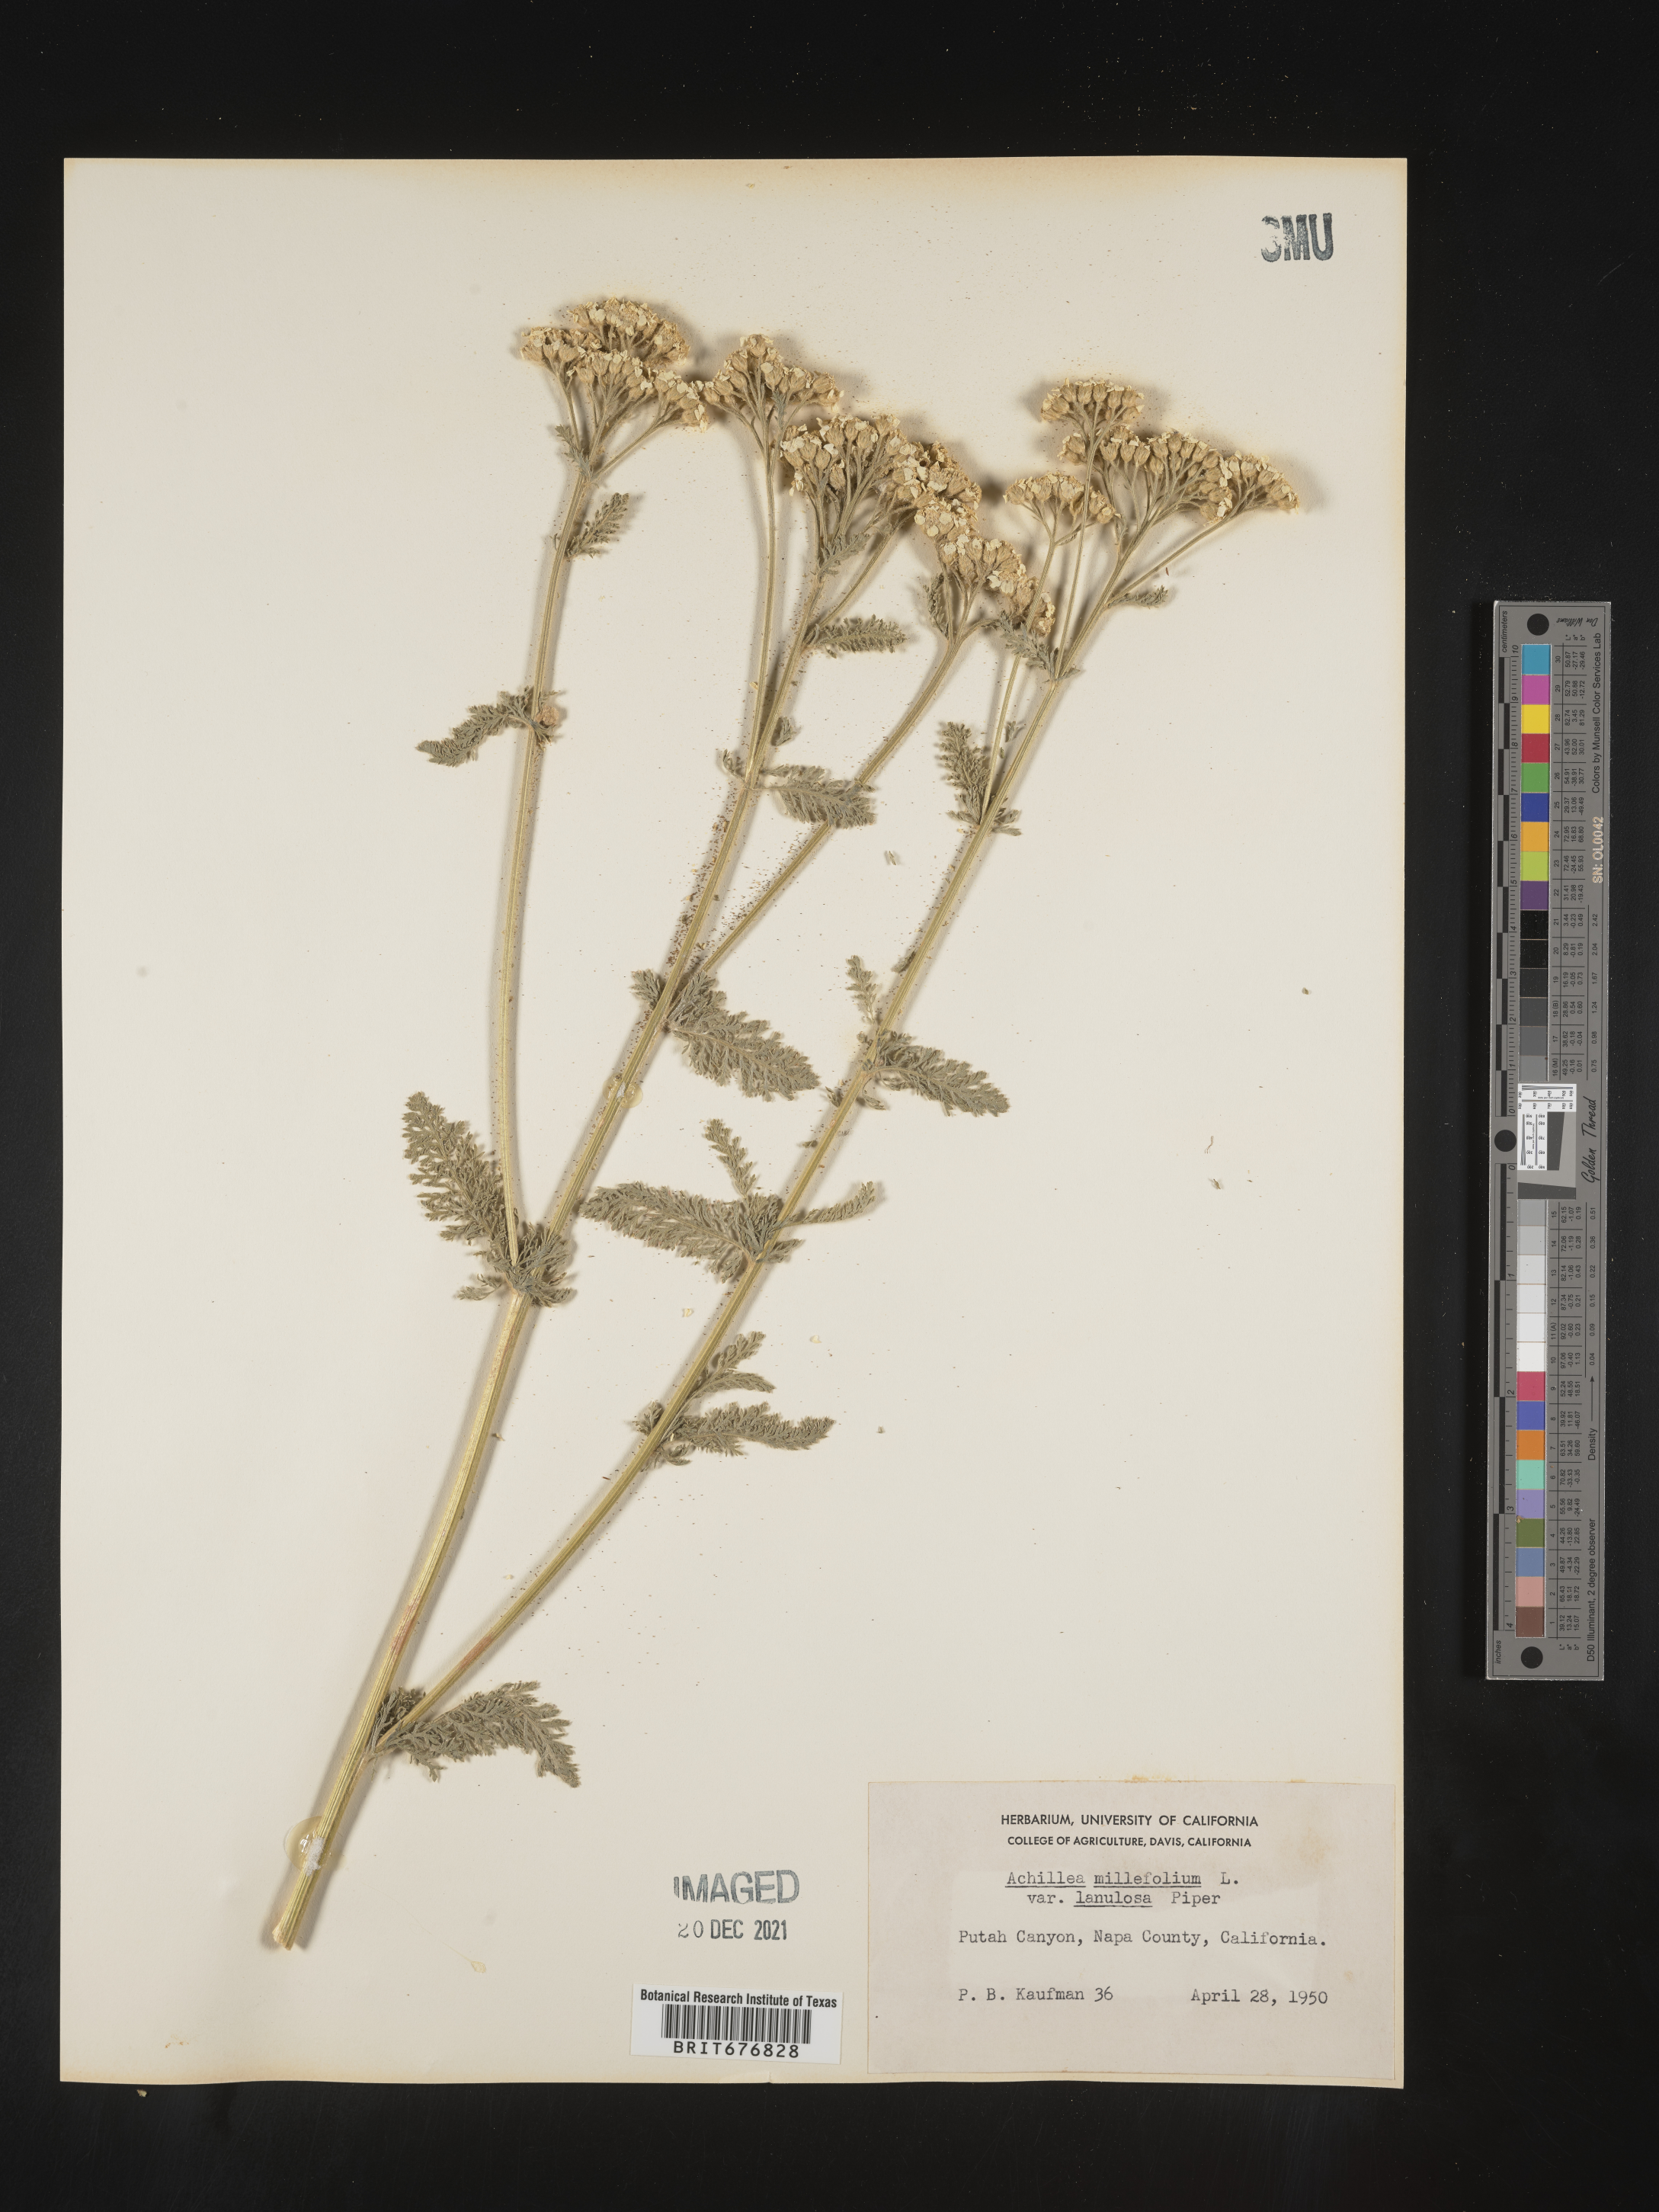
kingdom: Plantae
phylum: Tracheophyta
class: Magnoliopsida
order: Asterales
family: Asteraceae
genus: Achillea
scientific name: Achillea millefolium
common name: Yarrow
